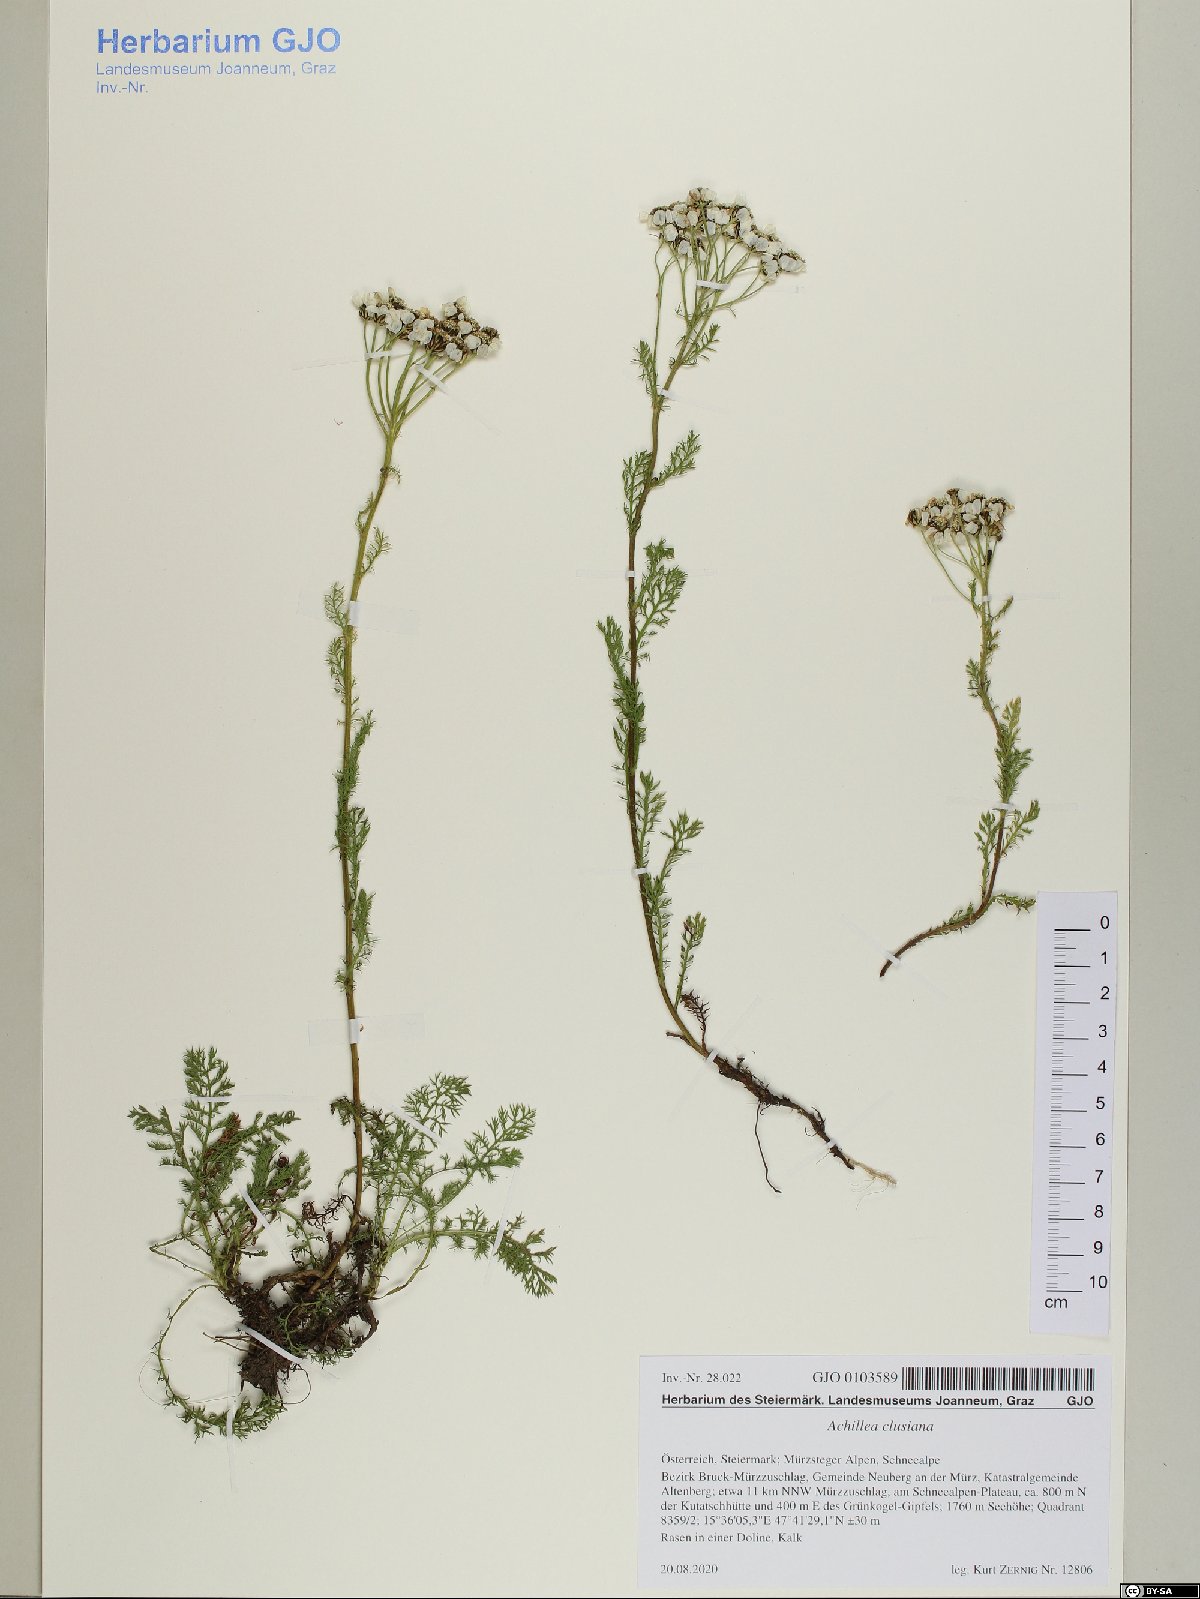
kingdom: Plantae
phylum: Tracheophyta
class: Magnoliopsida
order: Asterales
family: Asteraceae
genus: Achillea
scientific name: Achillea clusiana
